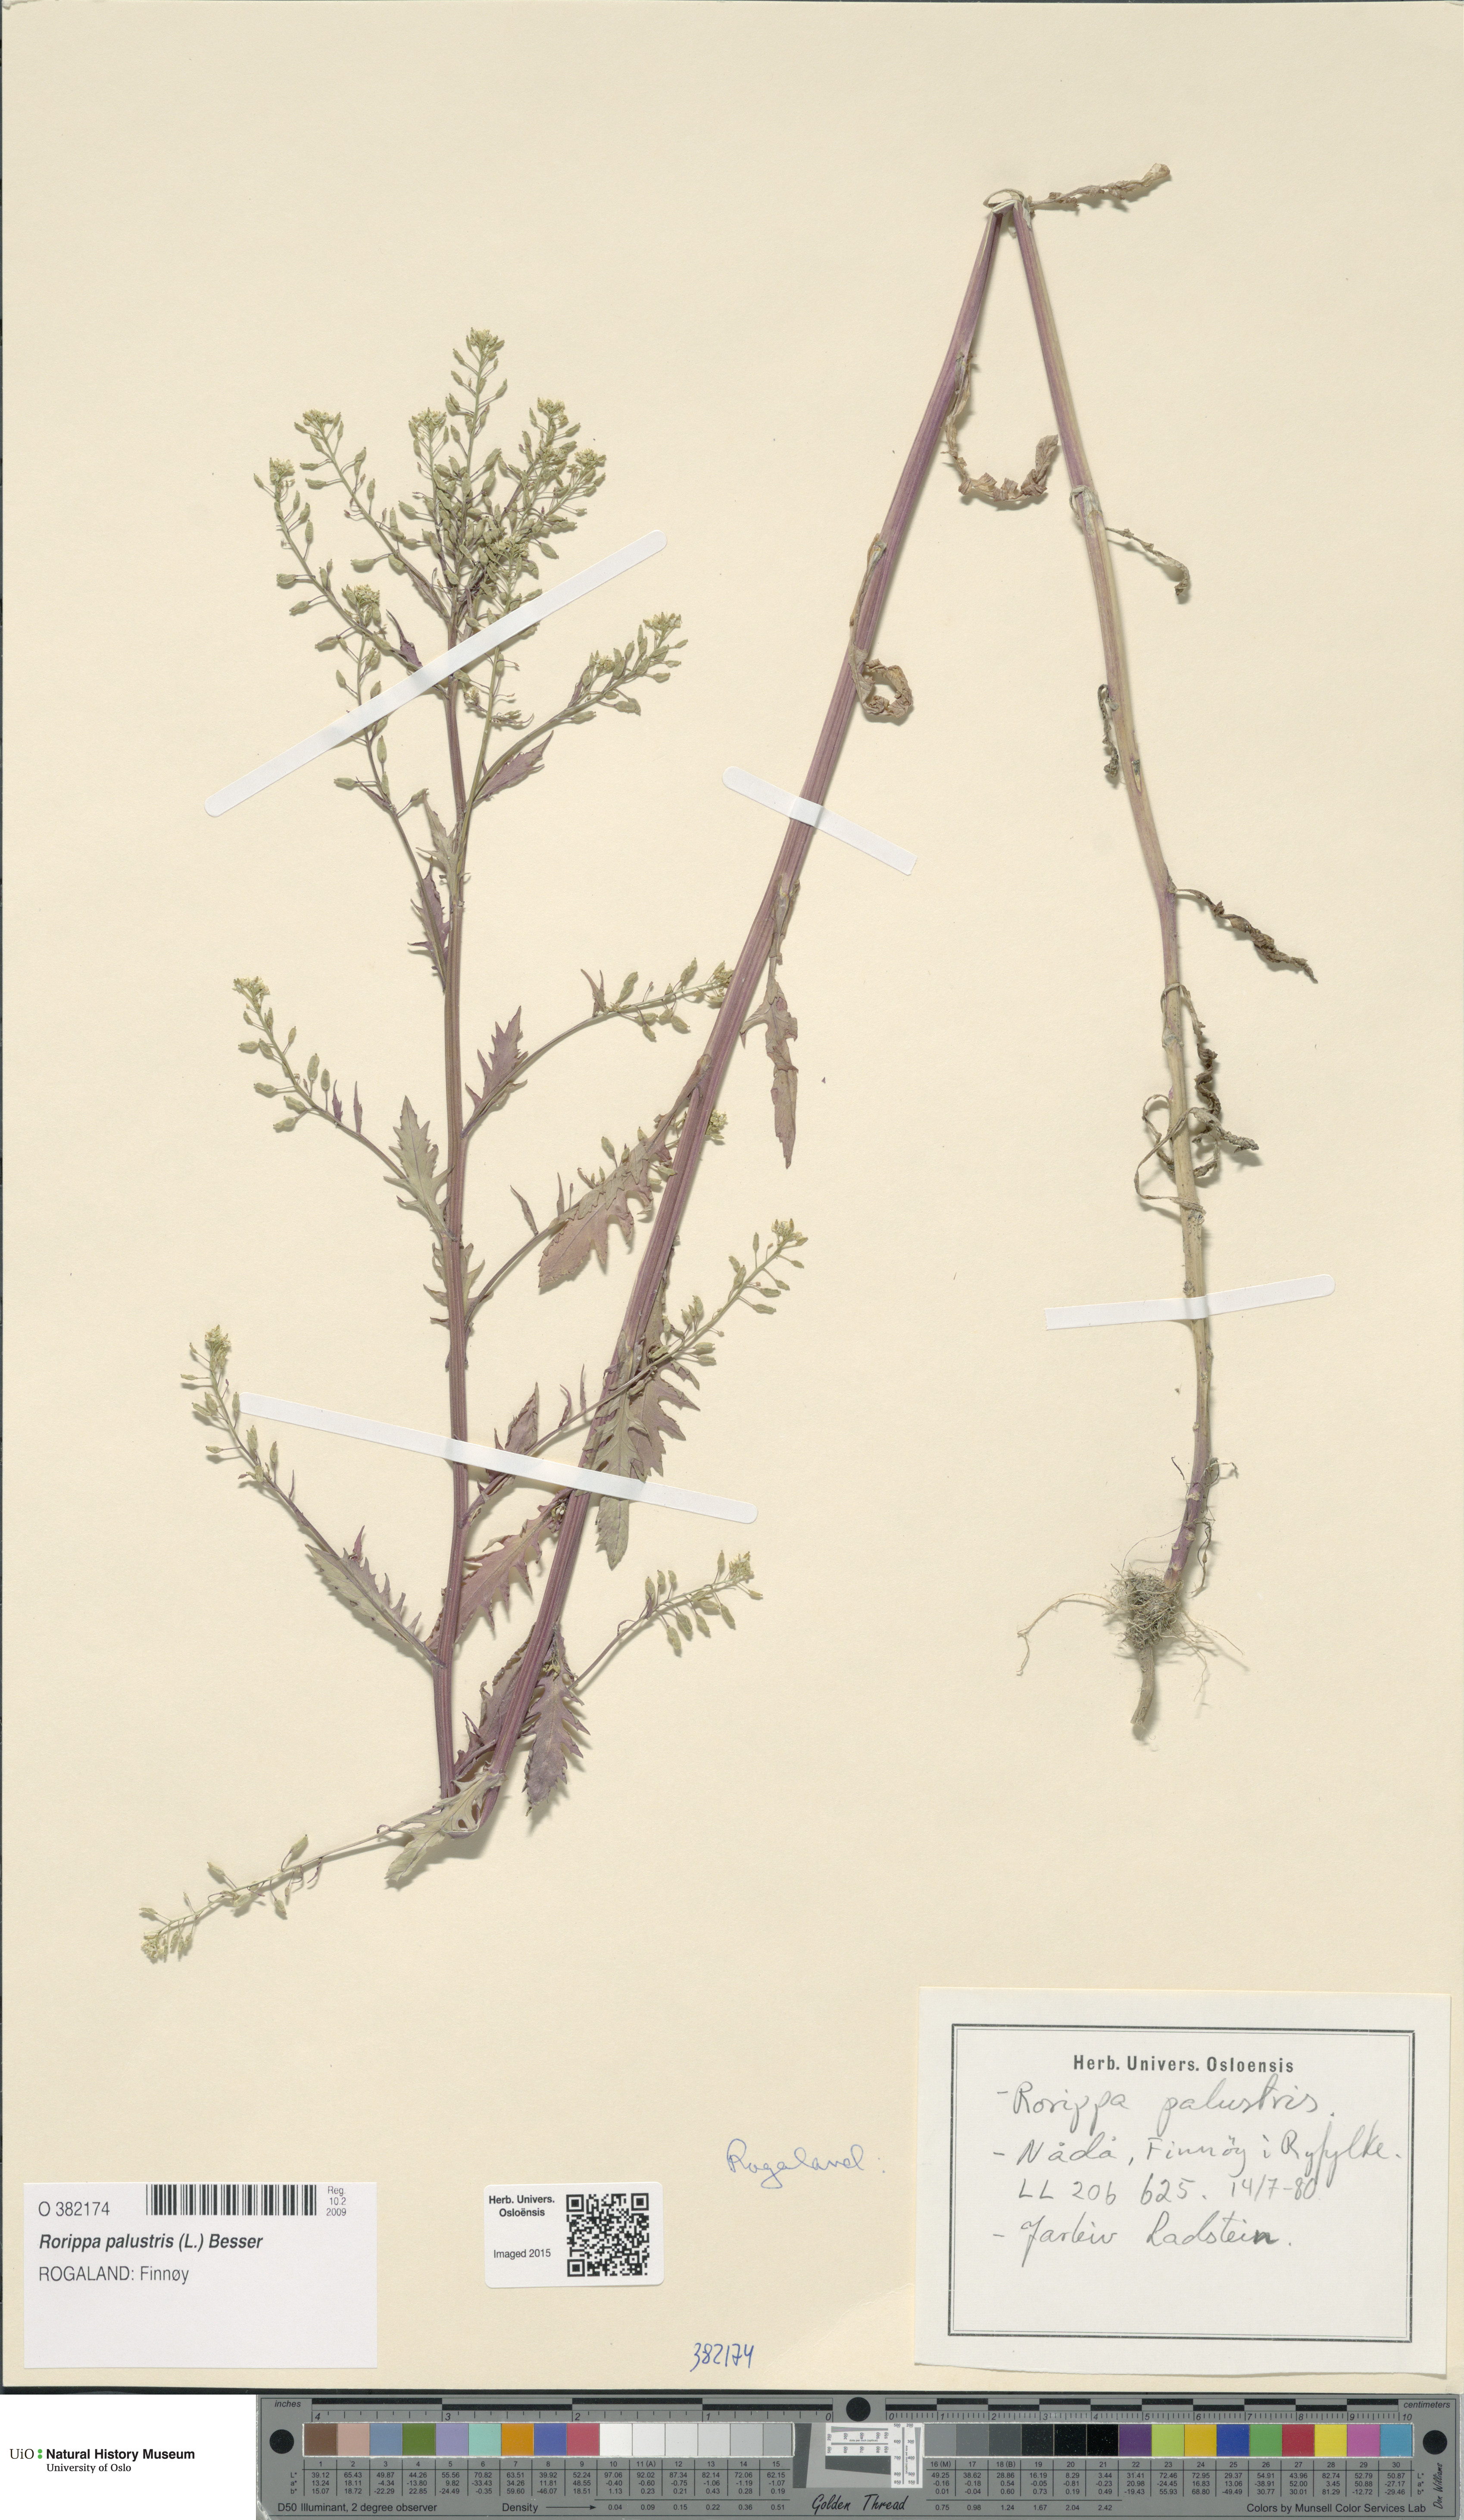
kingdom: Plantae
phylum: Tracheophyta
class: Magnoliopsida
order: Brassicales
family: Brassicaceae
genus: Rorippa
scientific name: Rorippa palustris
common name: Marsh yellow-cress
